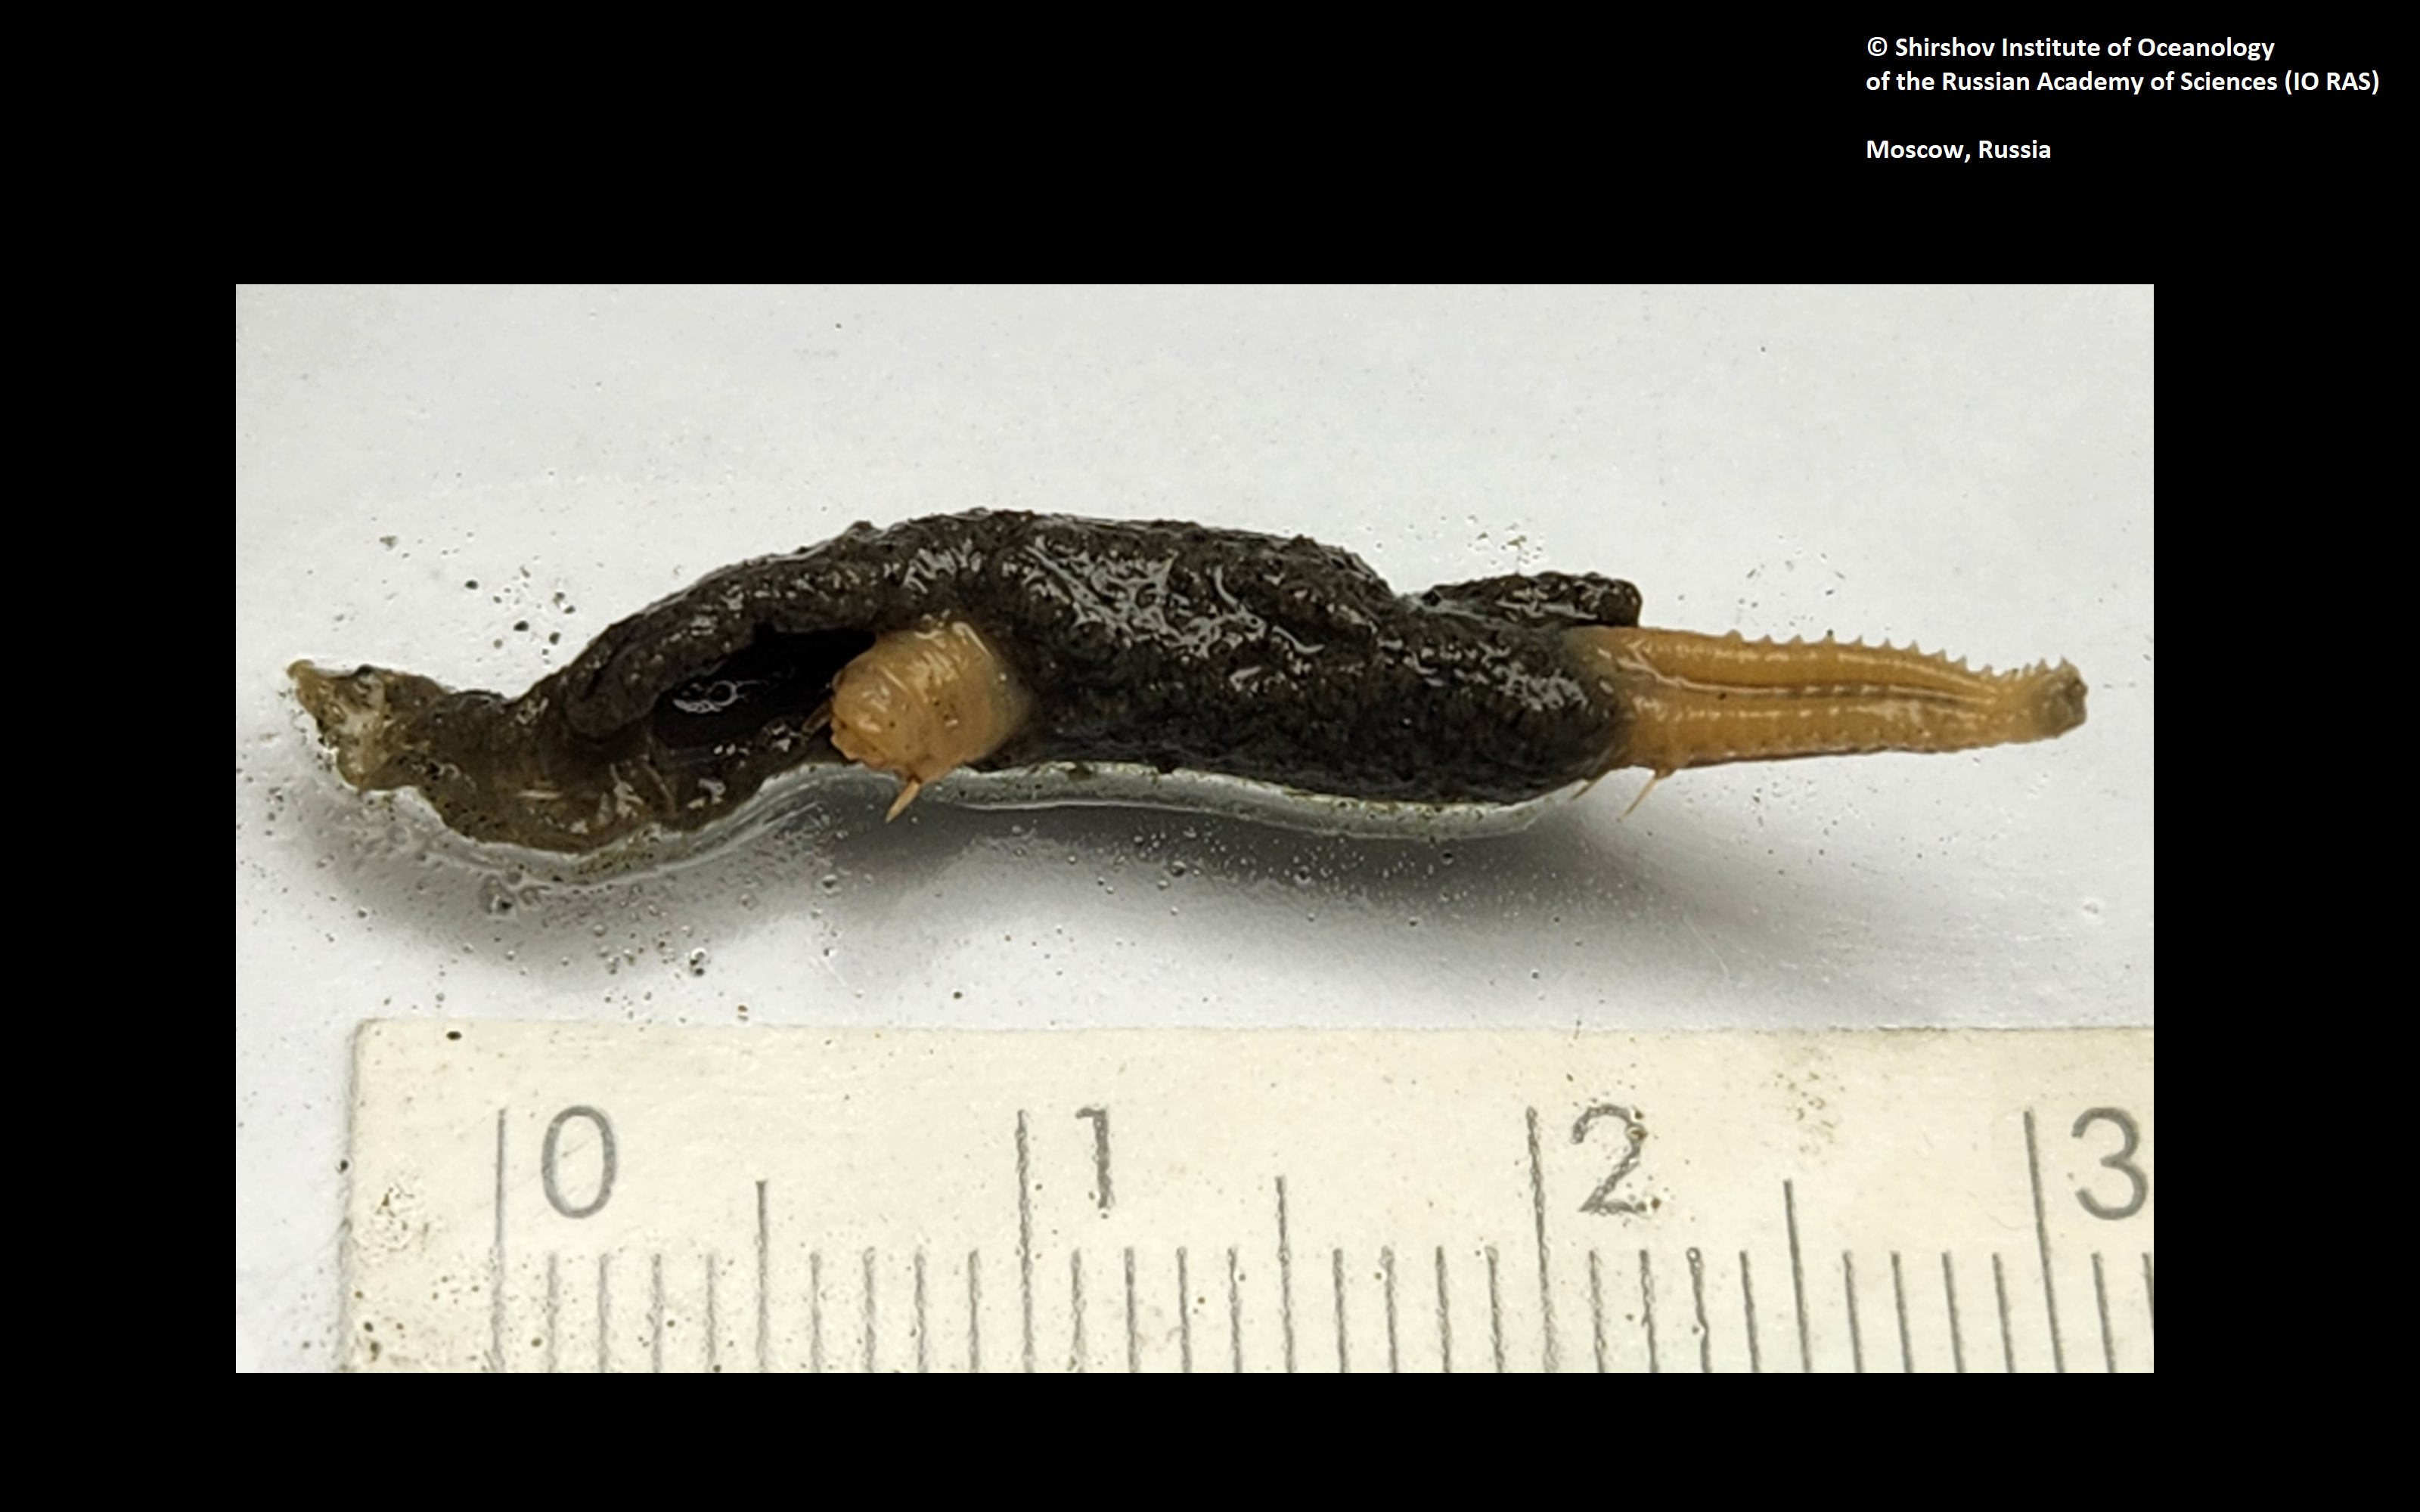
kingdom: Animalia
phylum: Annelida
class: Polychaeta
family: Ampharetidae
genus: Amphicteis
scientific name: Amphicteis nikiti
